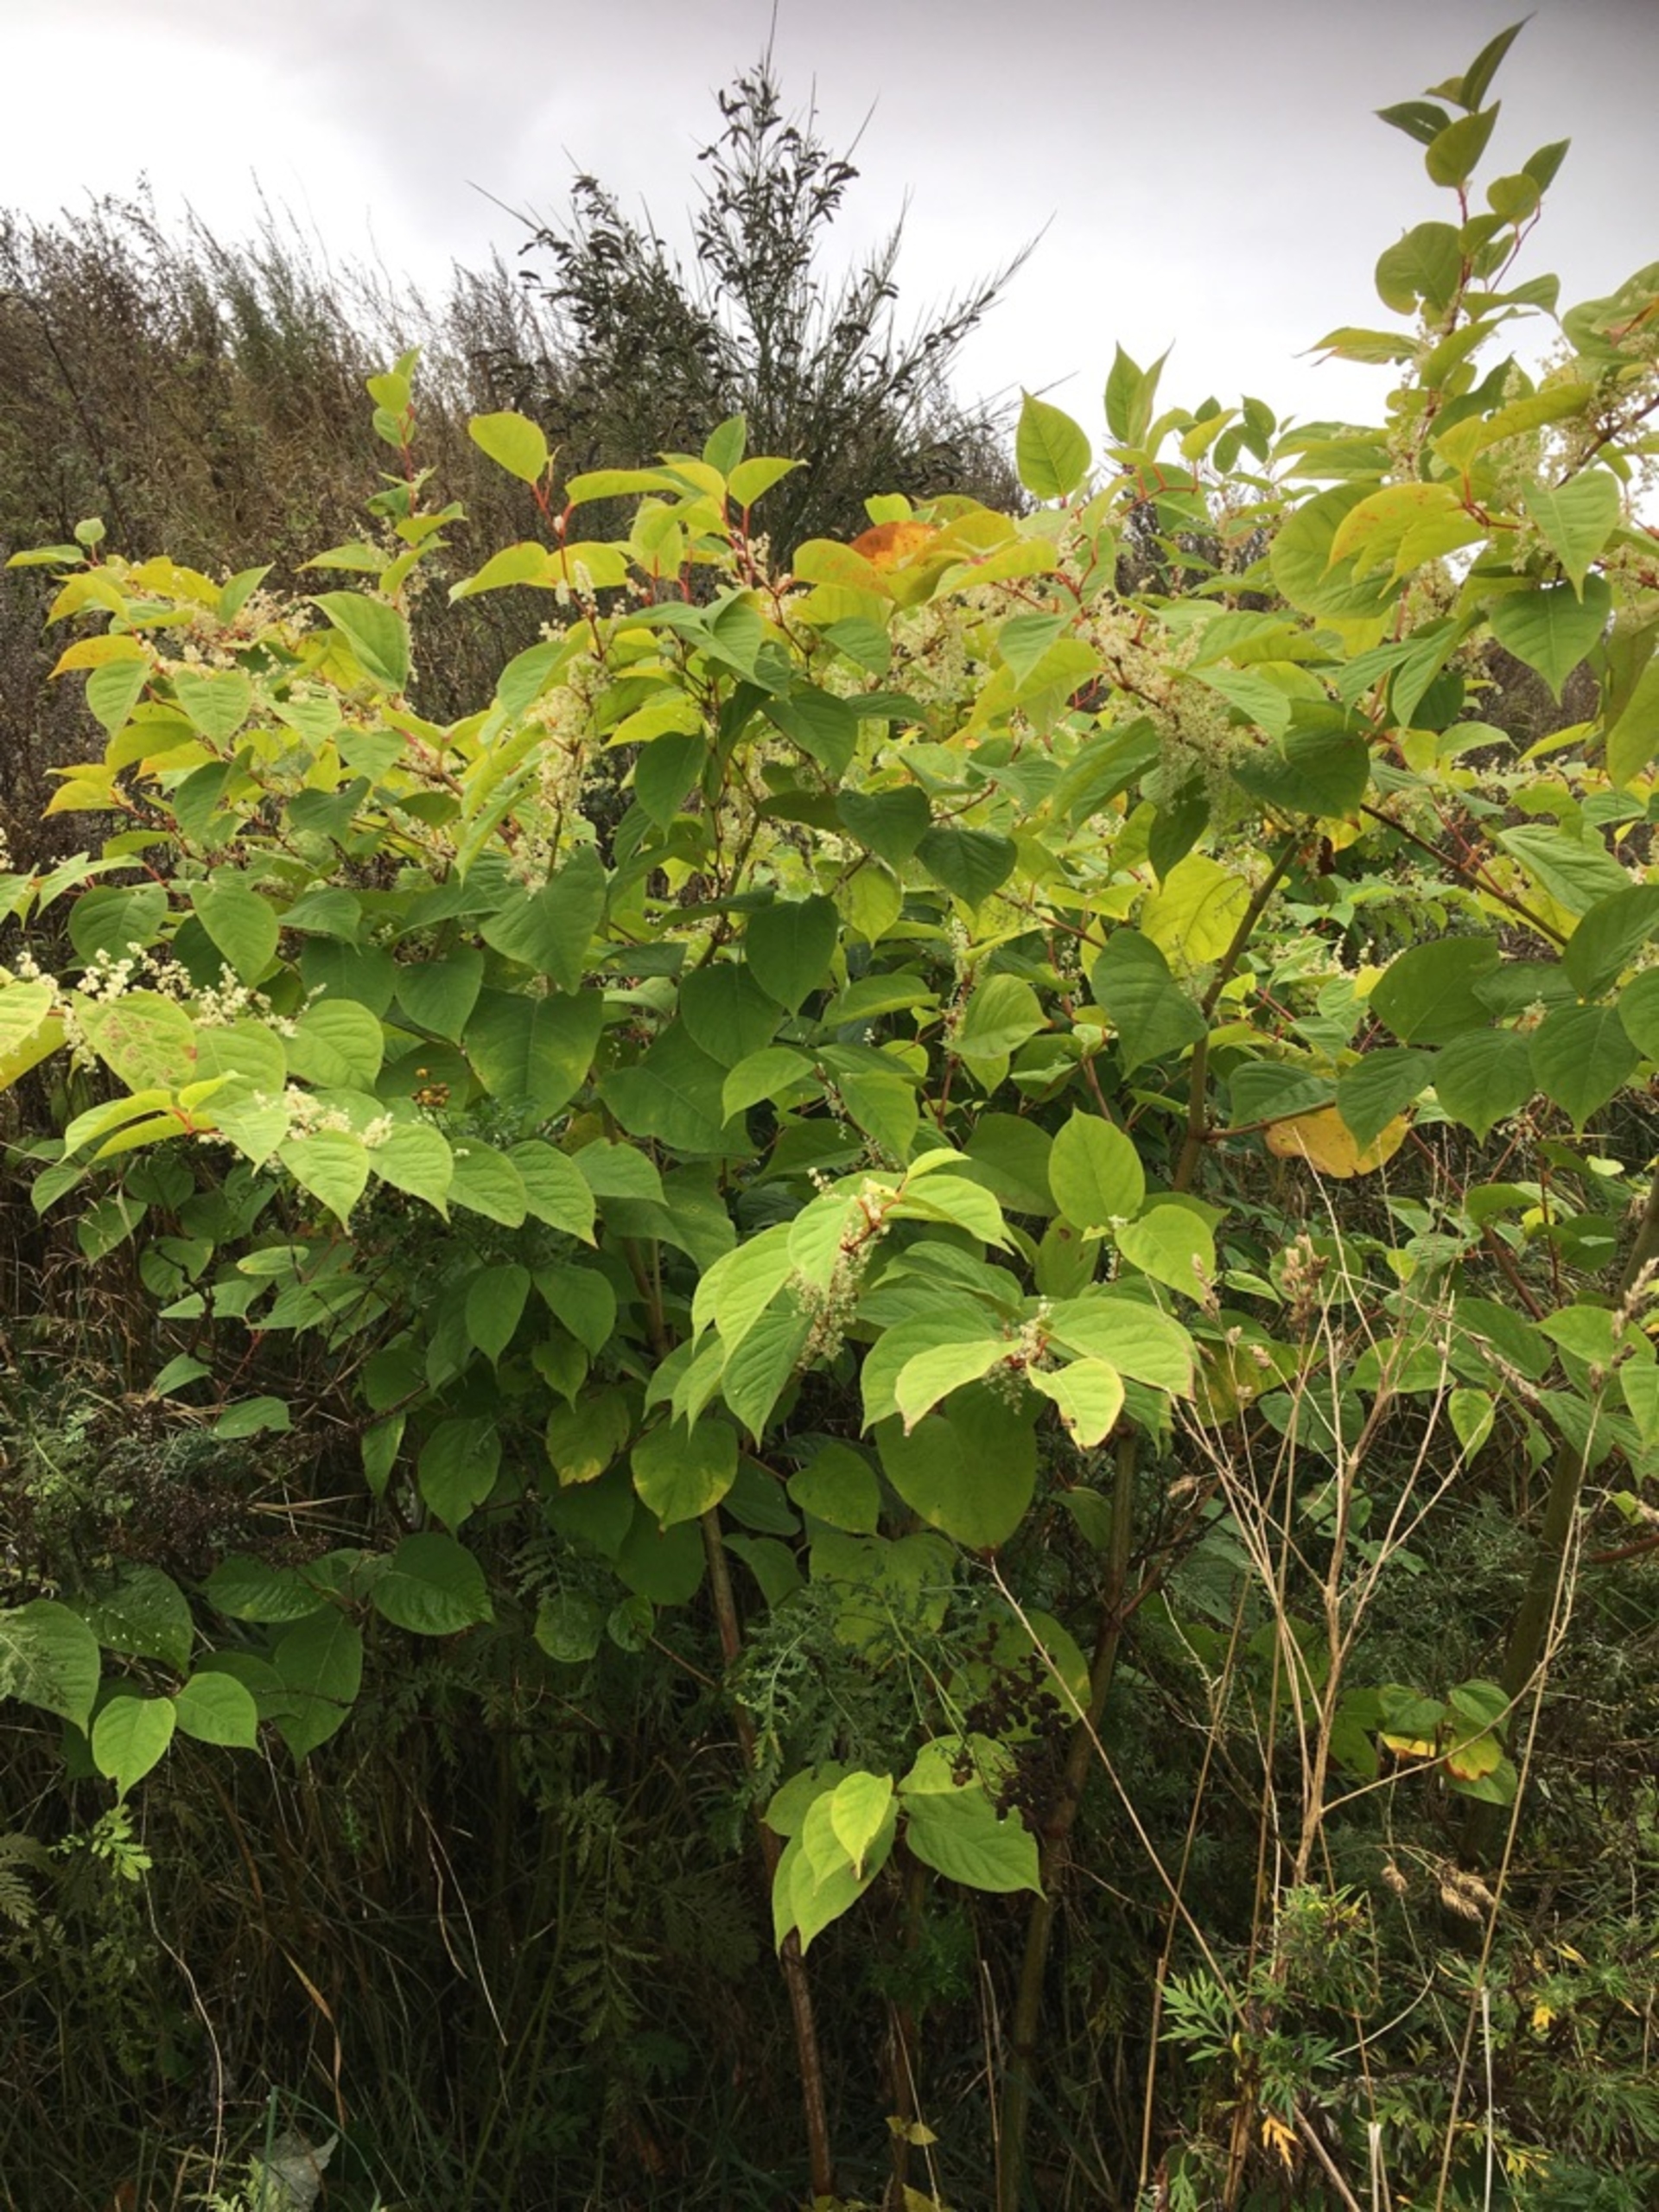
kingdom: Plantae
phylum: Tracheophyta
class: Magnoliopsida
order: Caryophyllales
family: Polygonaceae
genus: Reynoutria
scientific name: Reynoutria japonica
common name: Japan-pileurt
